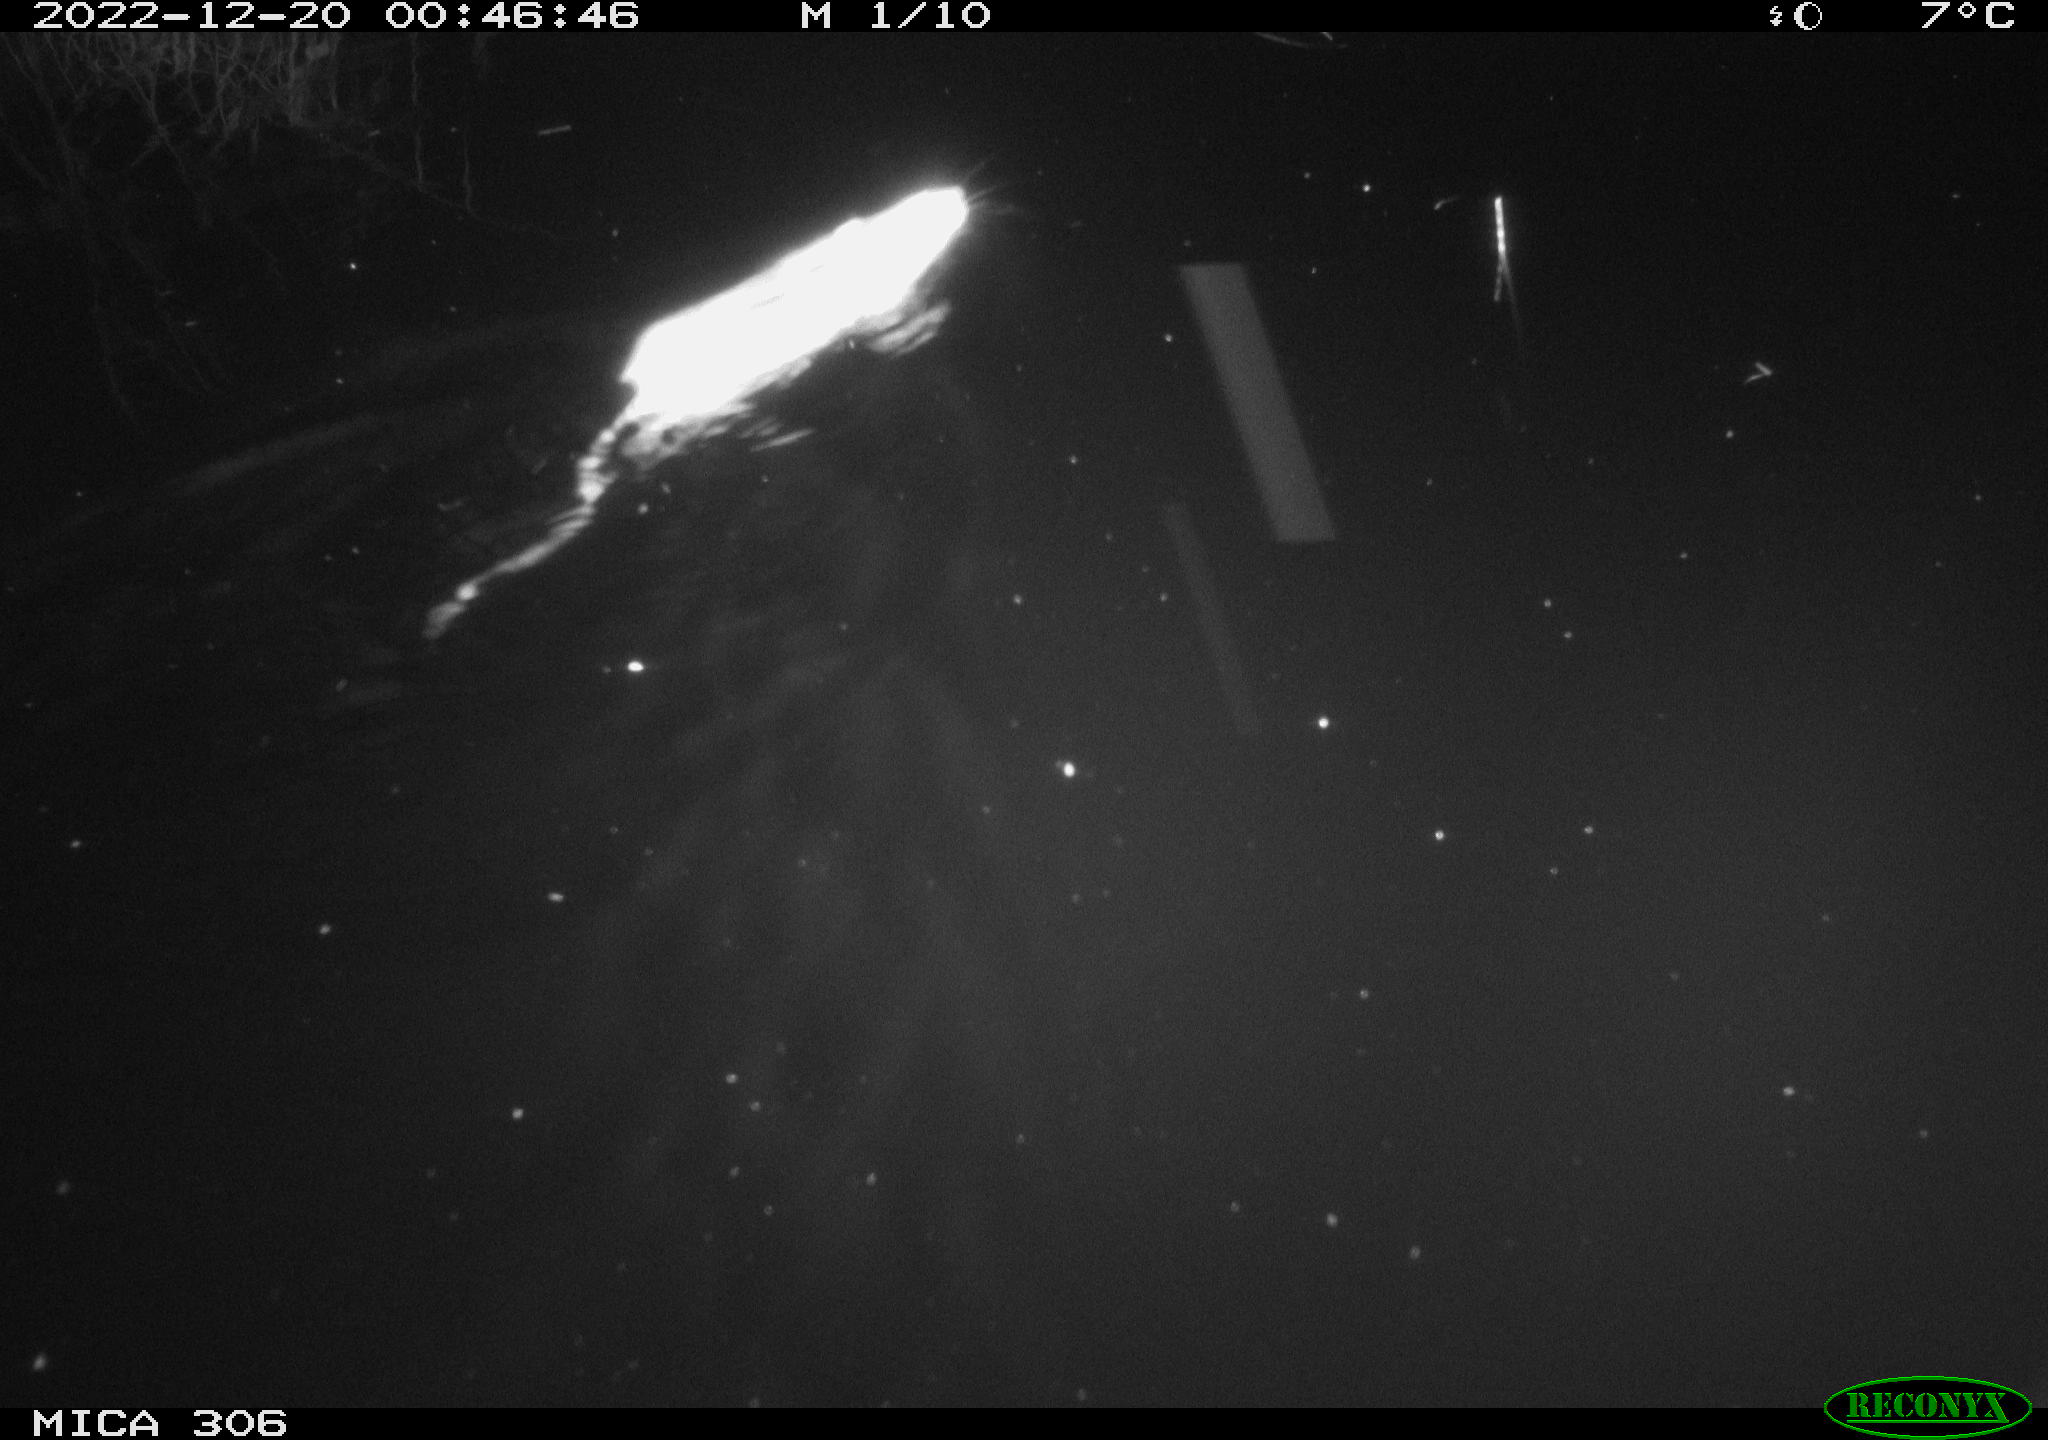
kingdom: Animalia
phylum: Chordata
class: Mammalia
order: Rodentia
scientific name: Rodentia
